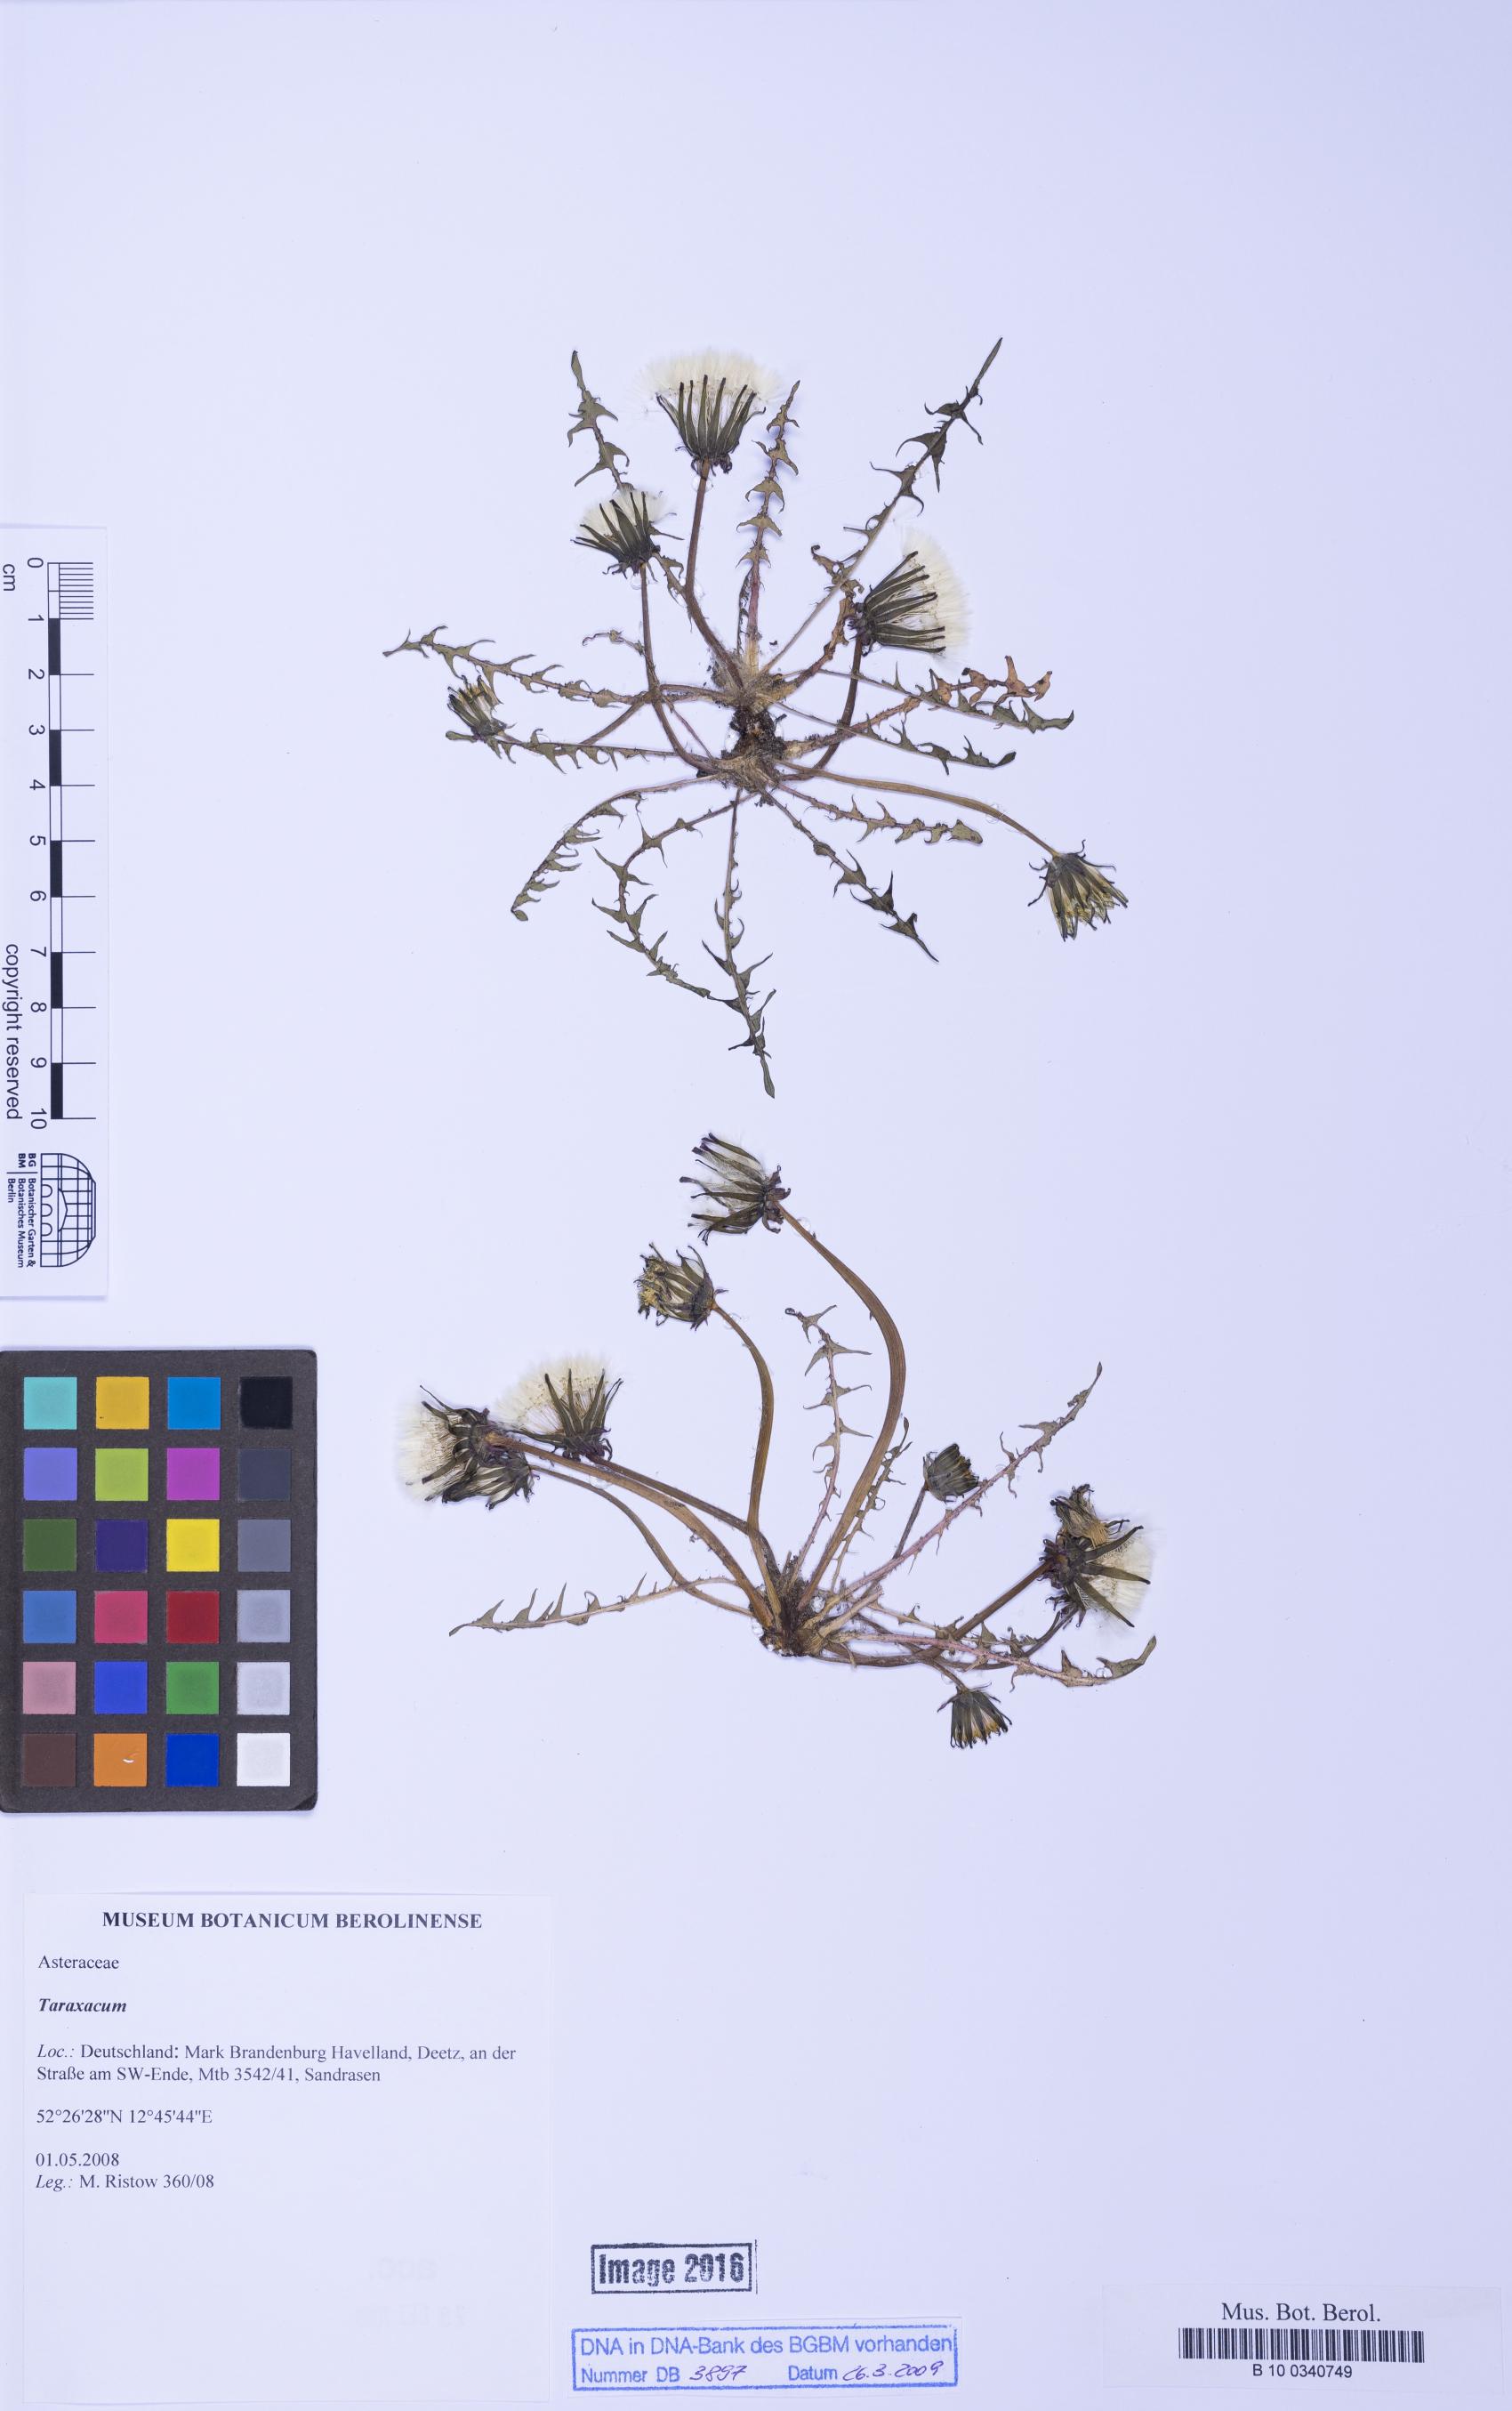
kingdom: Plantae
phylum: Tracheophyta
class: Magnoliopsida
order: Asterales
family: Asteraceae
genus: Taraxacum
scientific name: Taraxacum
